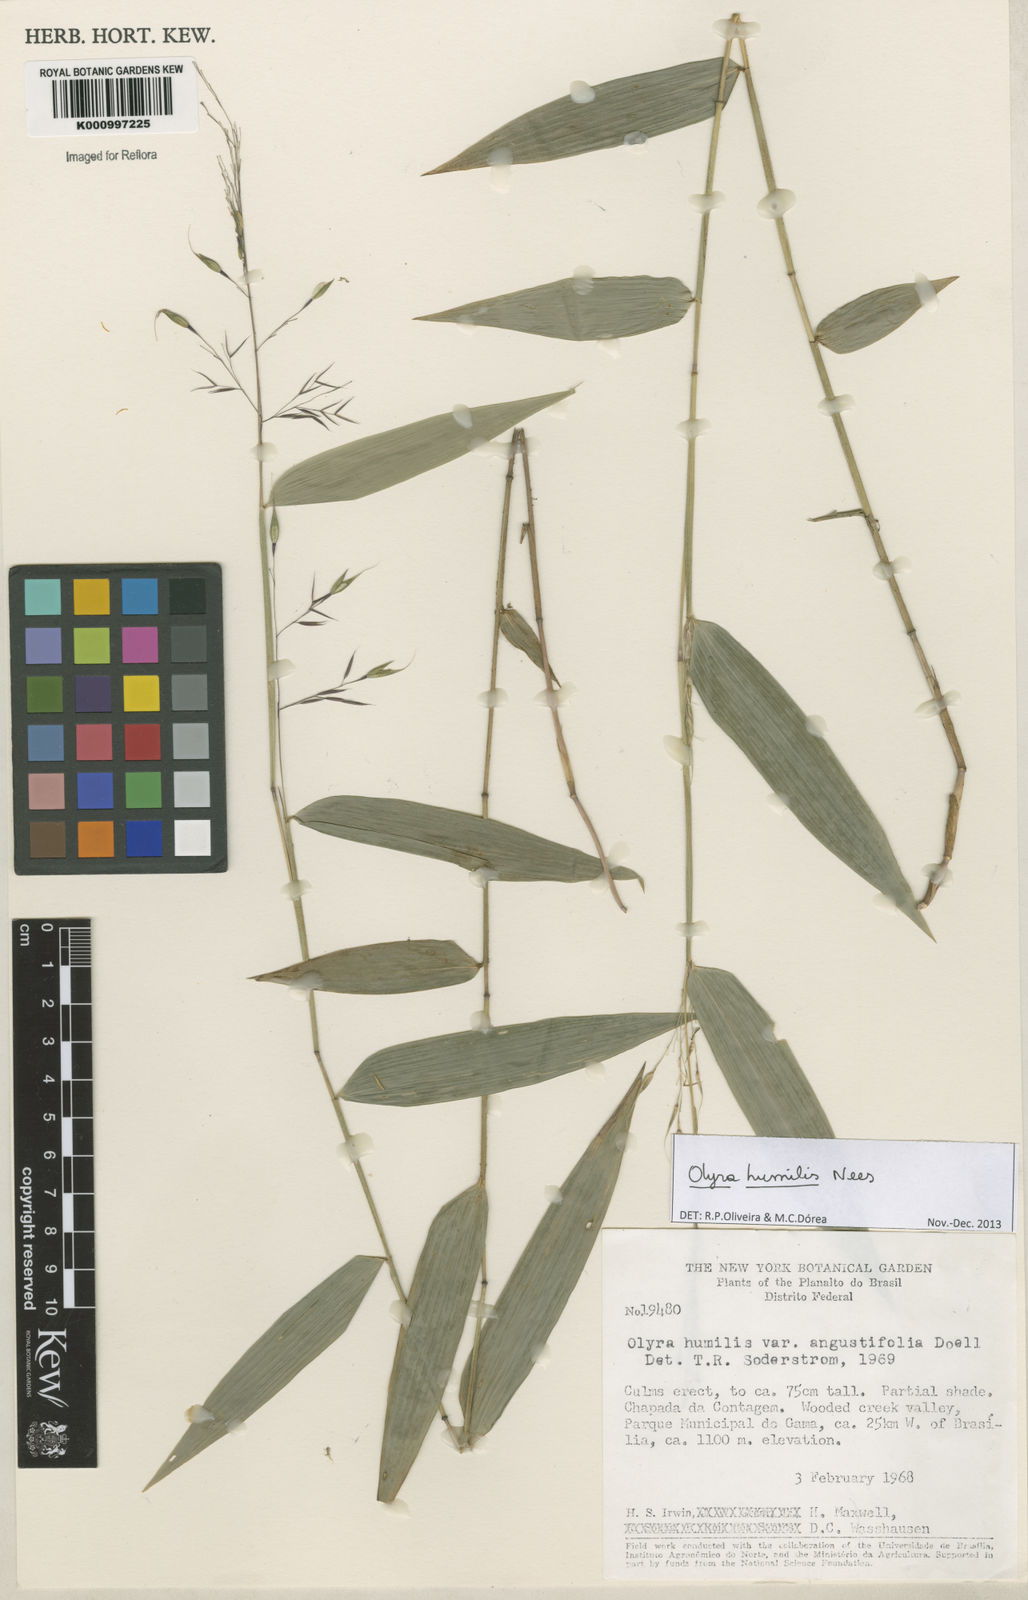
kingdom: Plantae
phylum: Tracheophyta
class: Liliopsida
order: Poales
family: Poaceae
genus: Olyra
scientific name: Olyra humilis
